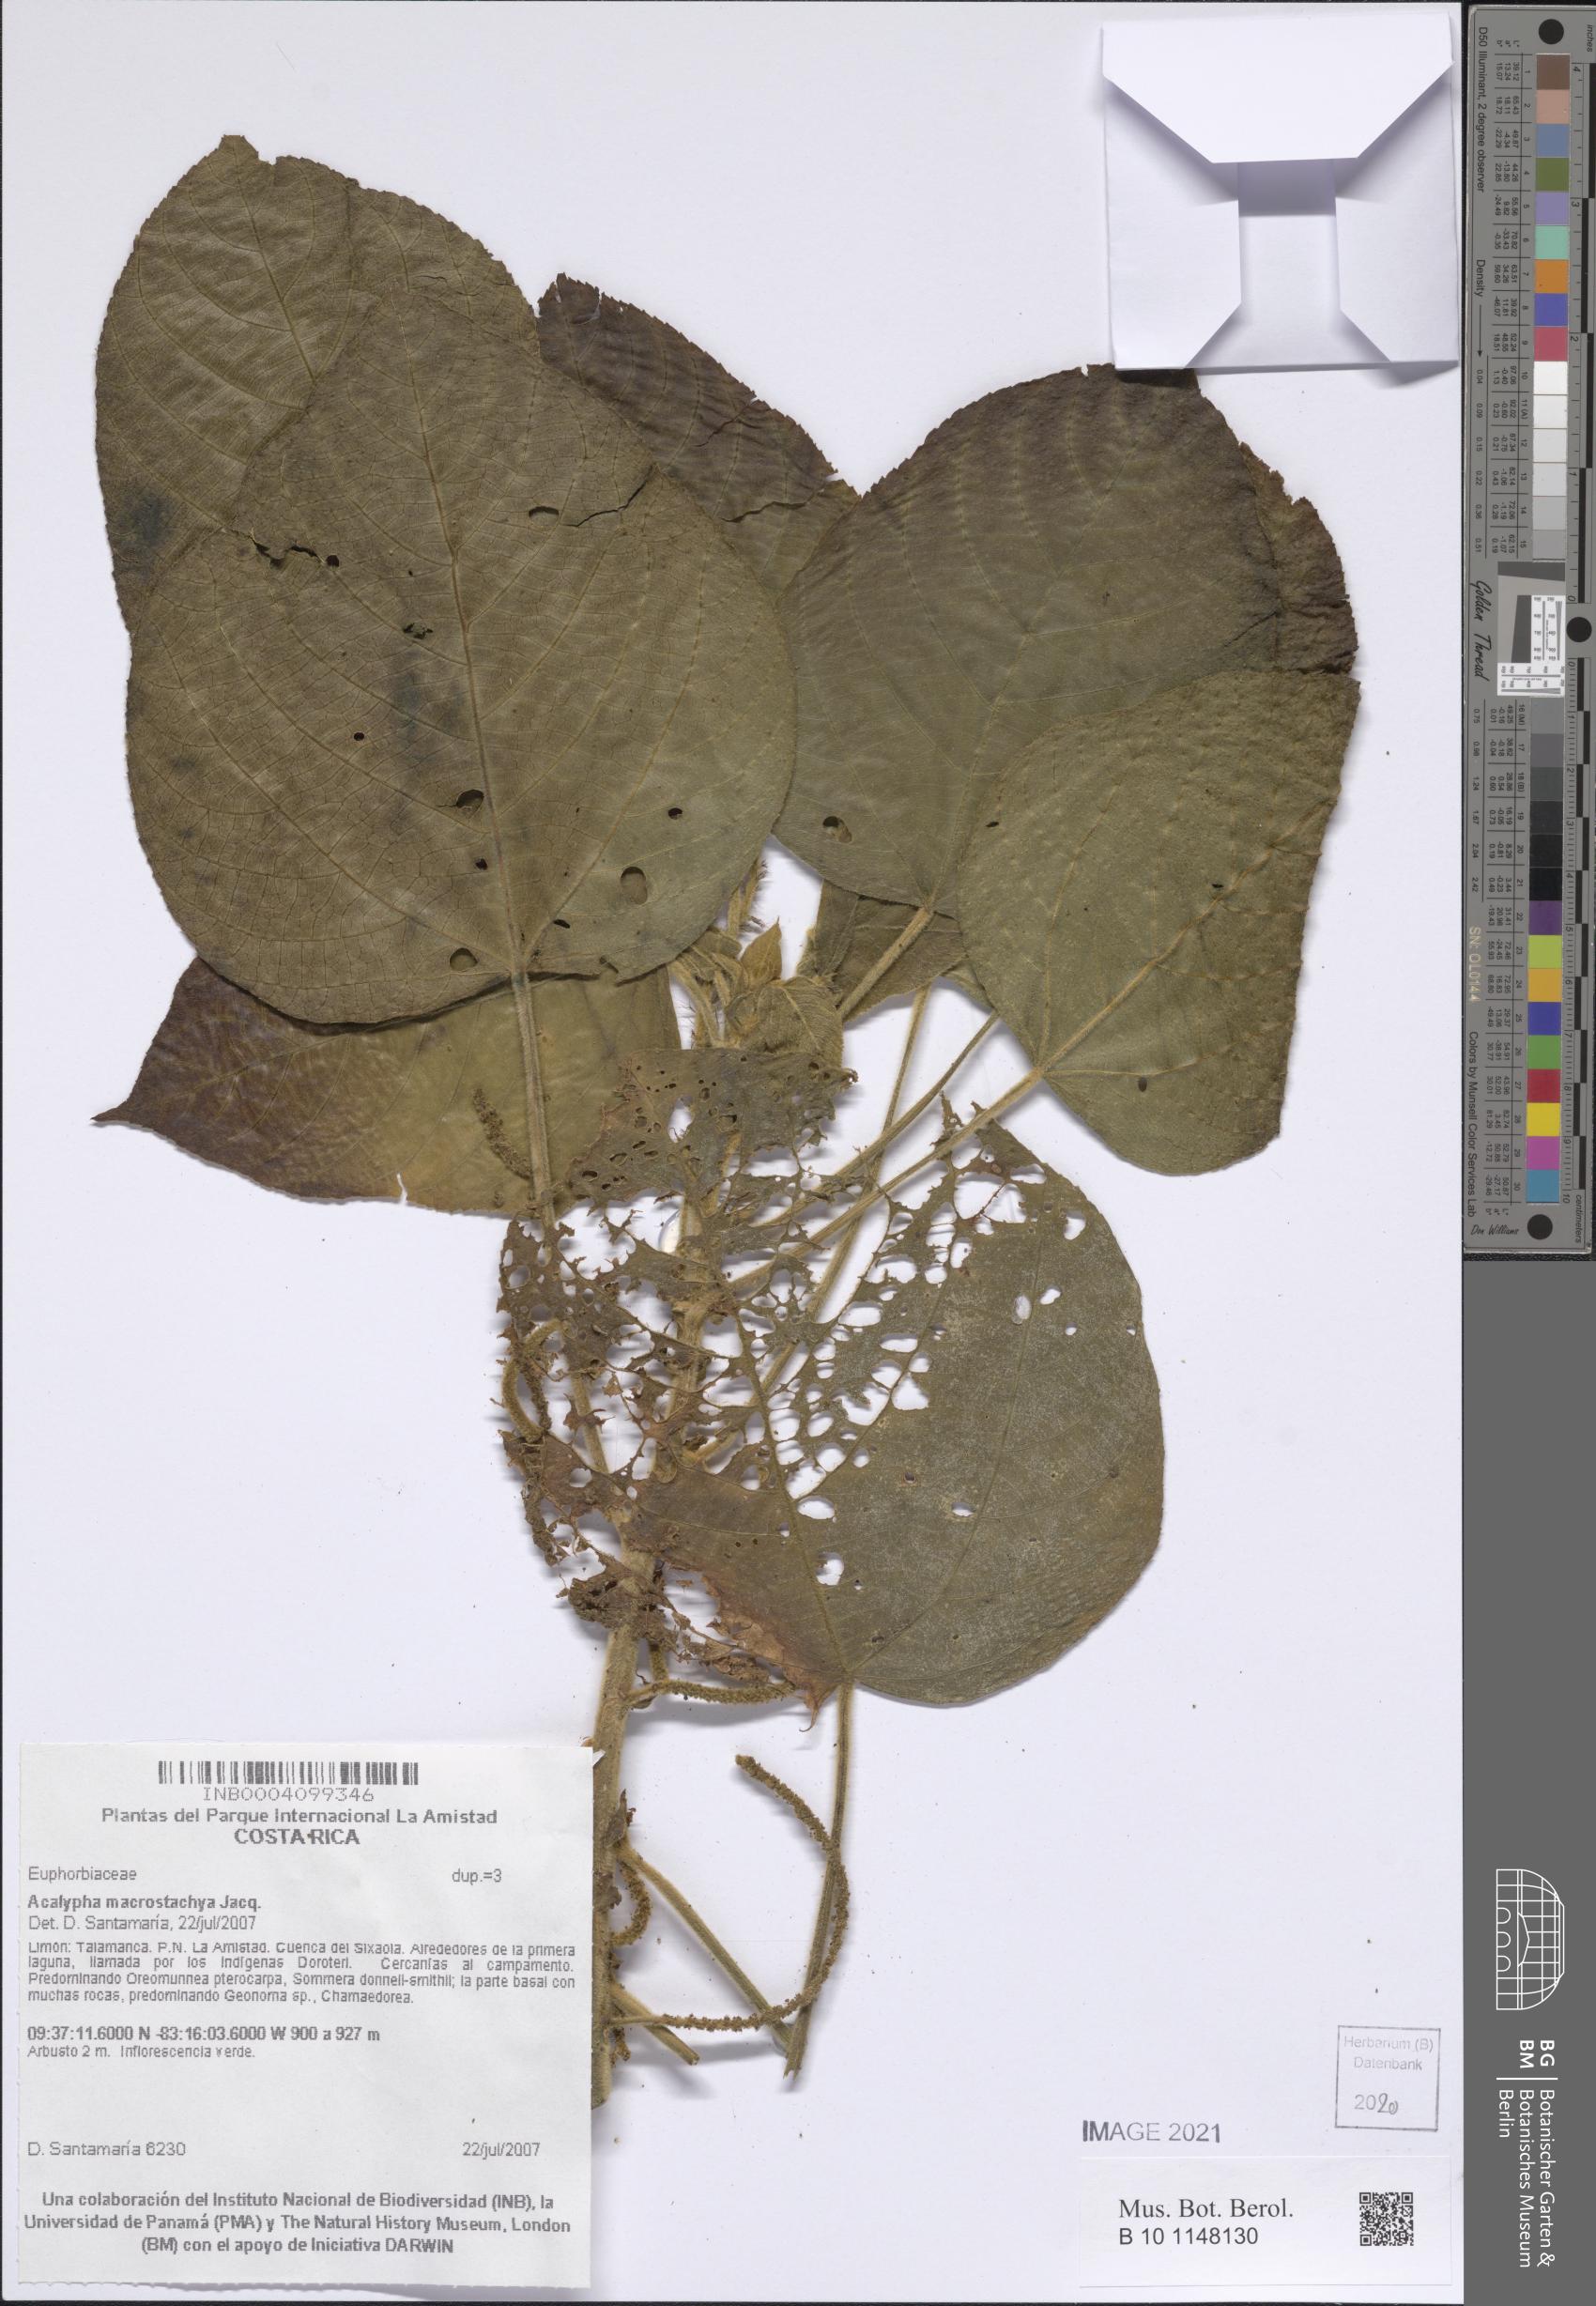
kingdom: Plantae
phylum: Tracheophyta
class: Magnoliopsida
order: Malpighiales
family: Euphorbiaceae
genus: Acalypha
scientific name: Acalypha macrostachya
